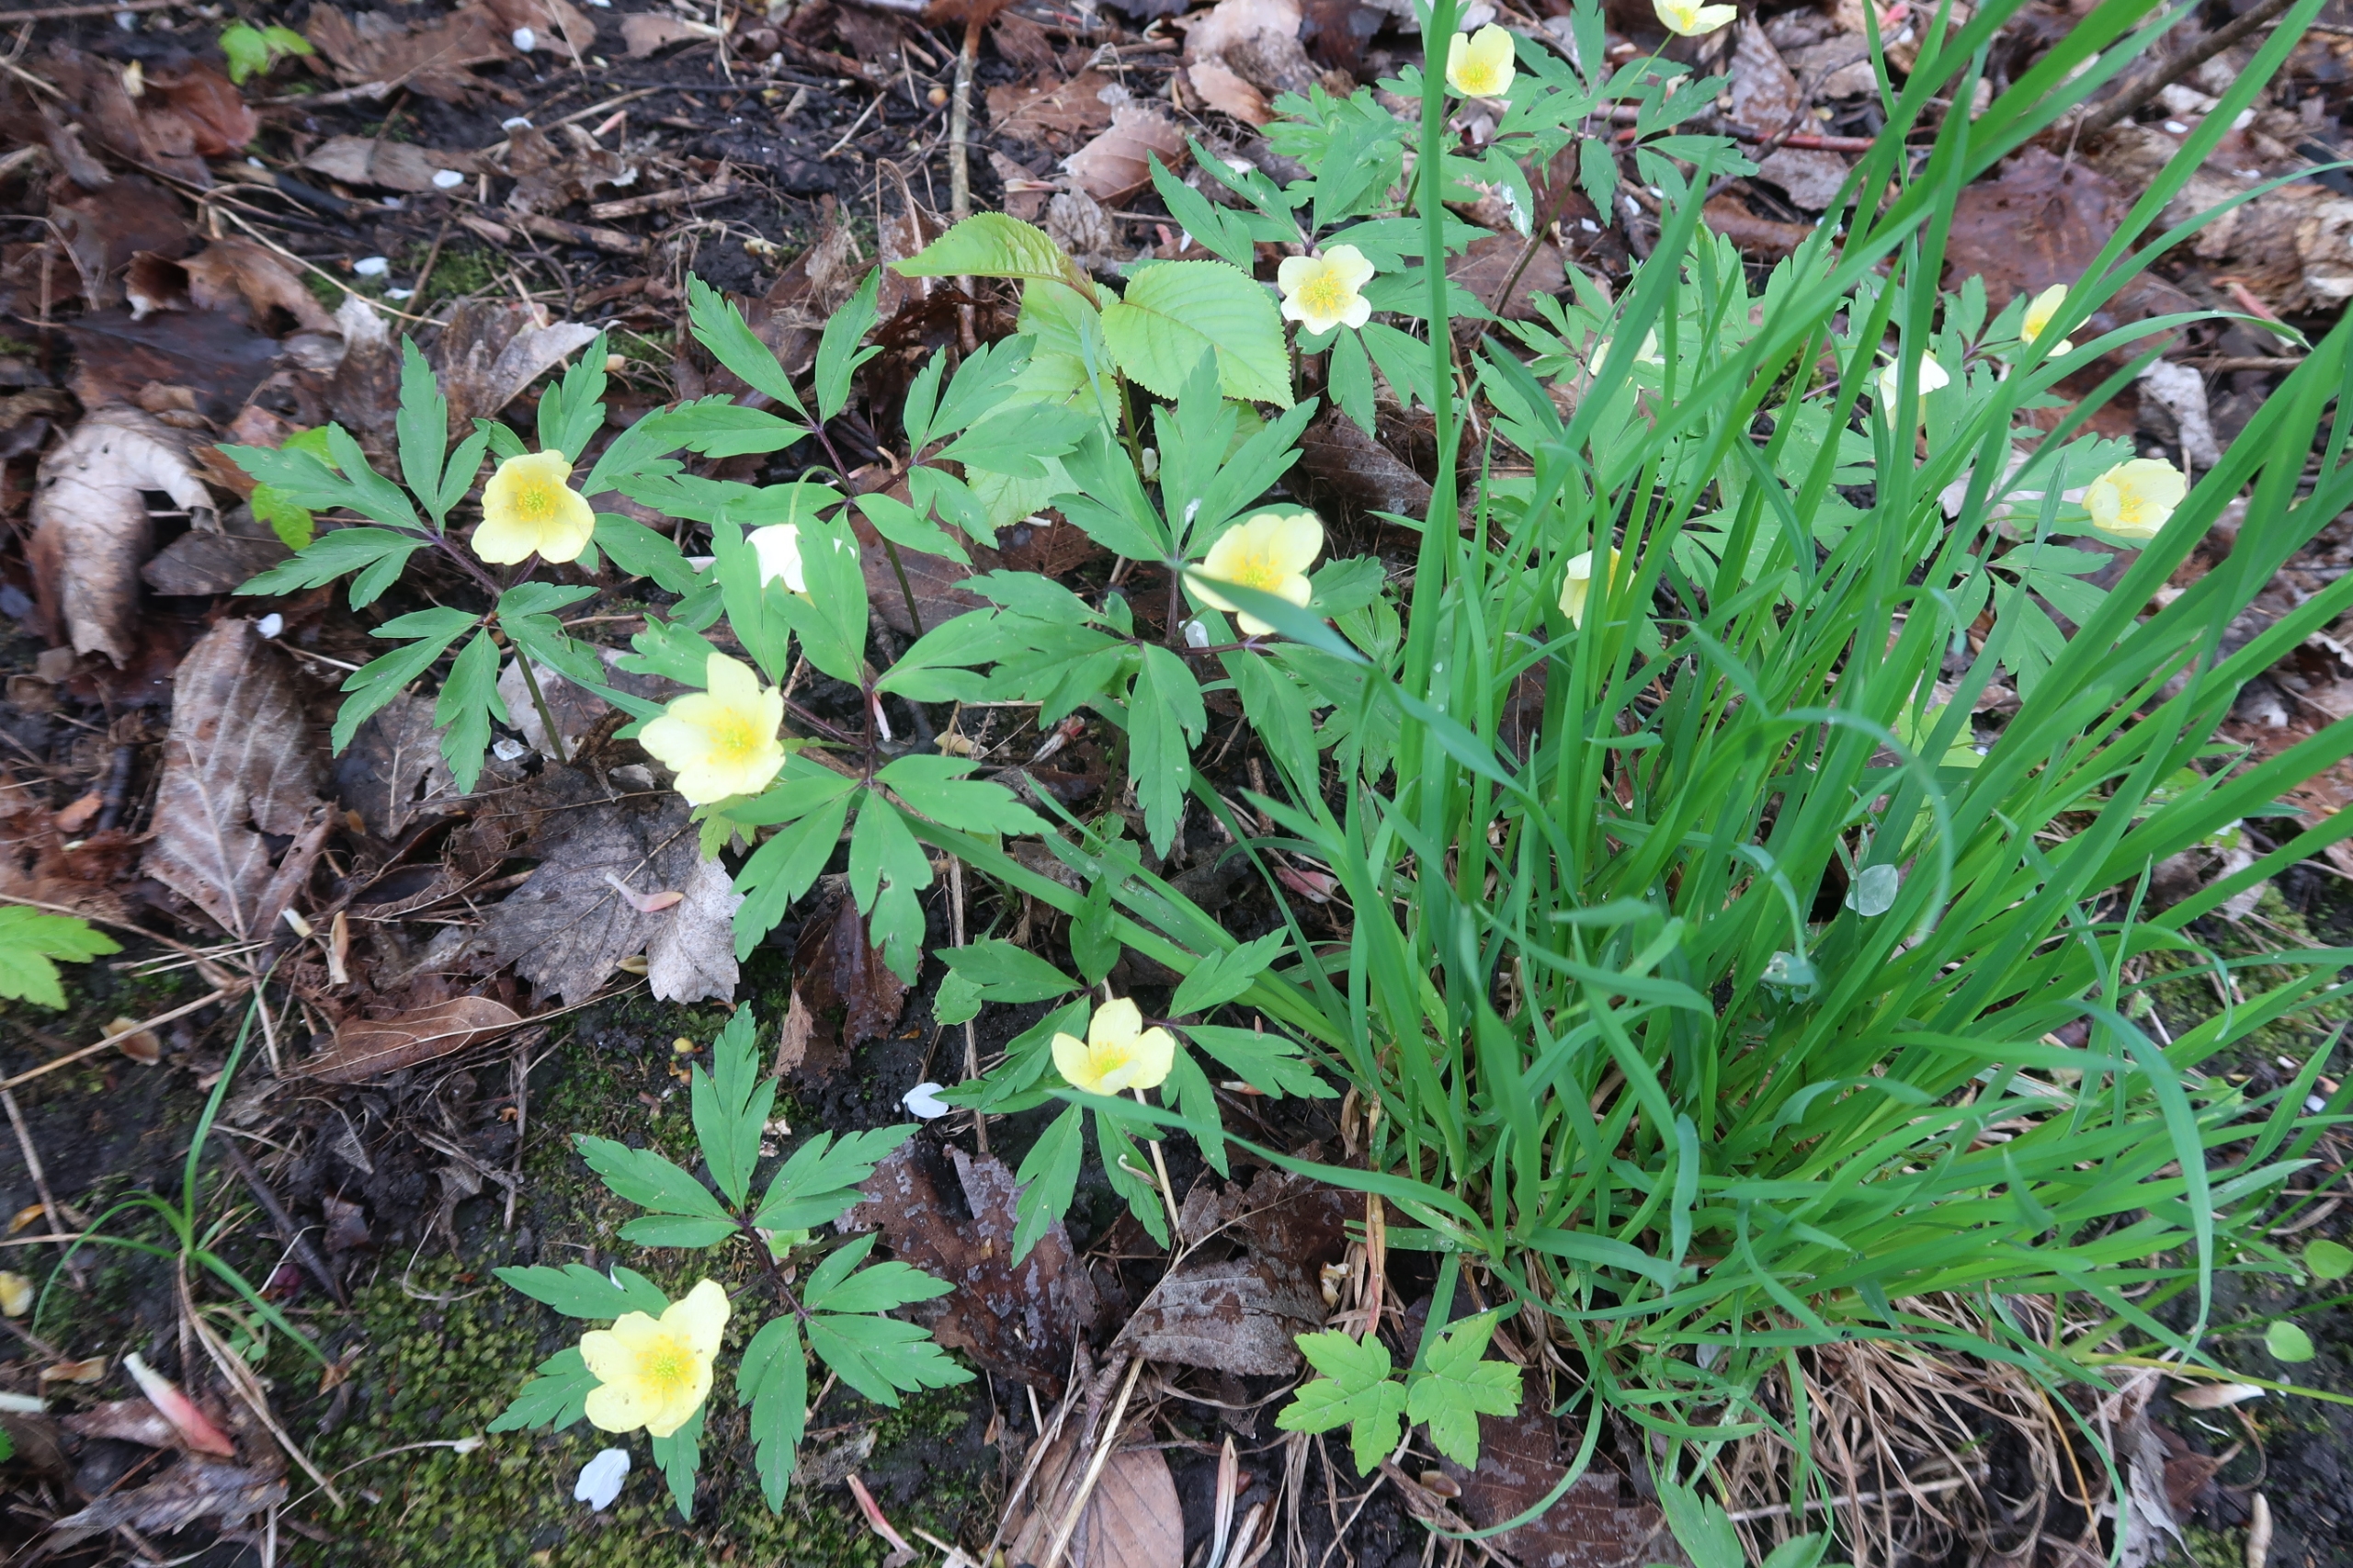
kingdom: Plantae
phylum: Tracheophyta
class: Magnoliopsida
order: Ranunculales
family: Ranunculaceae
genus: Anemone
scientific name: Anemone
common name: Svovlgul anemone
